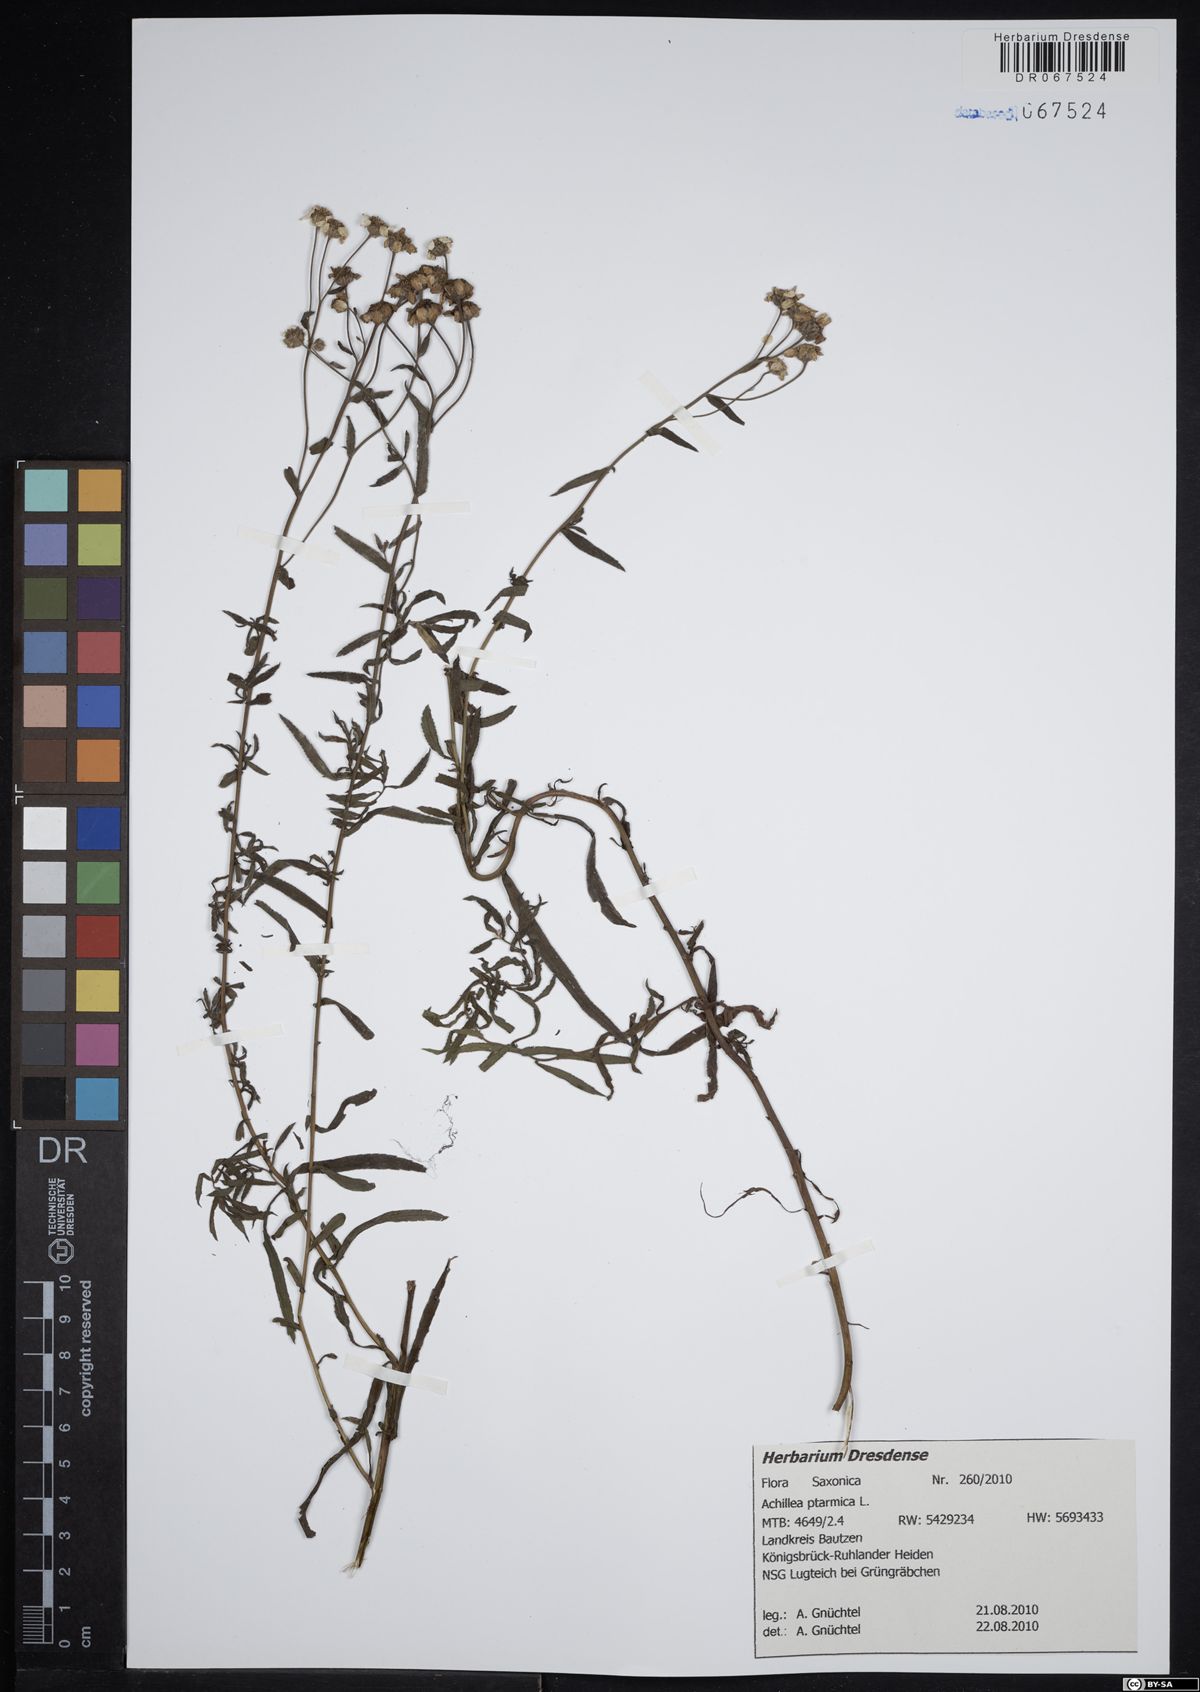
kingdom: Plantae
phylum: Tracheophyta
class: Magnoliopsida
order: Asterales
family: Asteraceae
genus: Achillea
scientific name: Achillea ptarmica
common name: Sneezeweed
